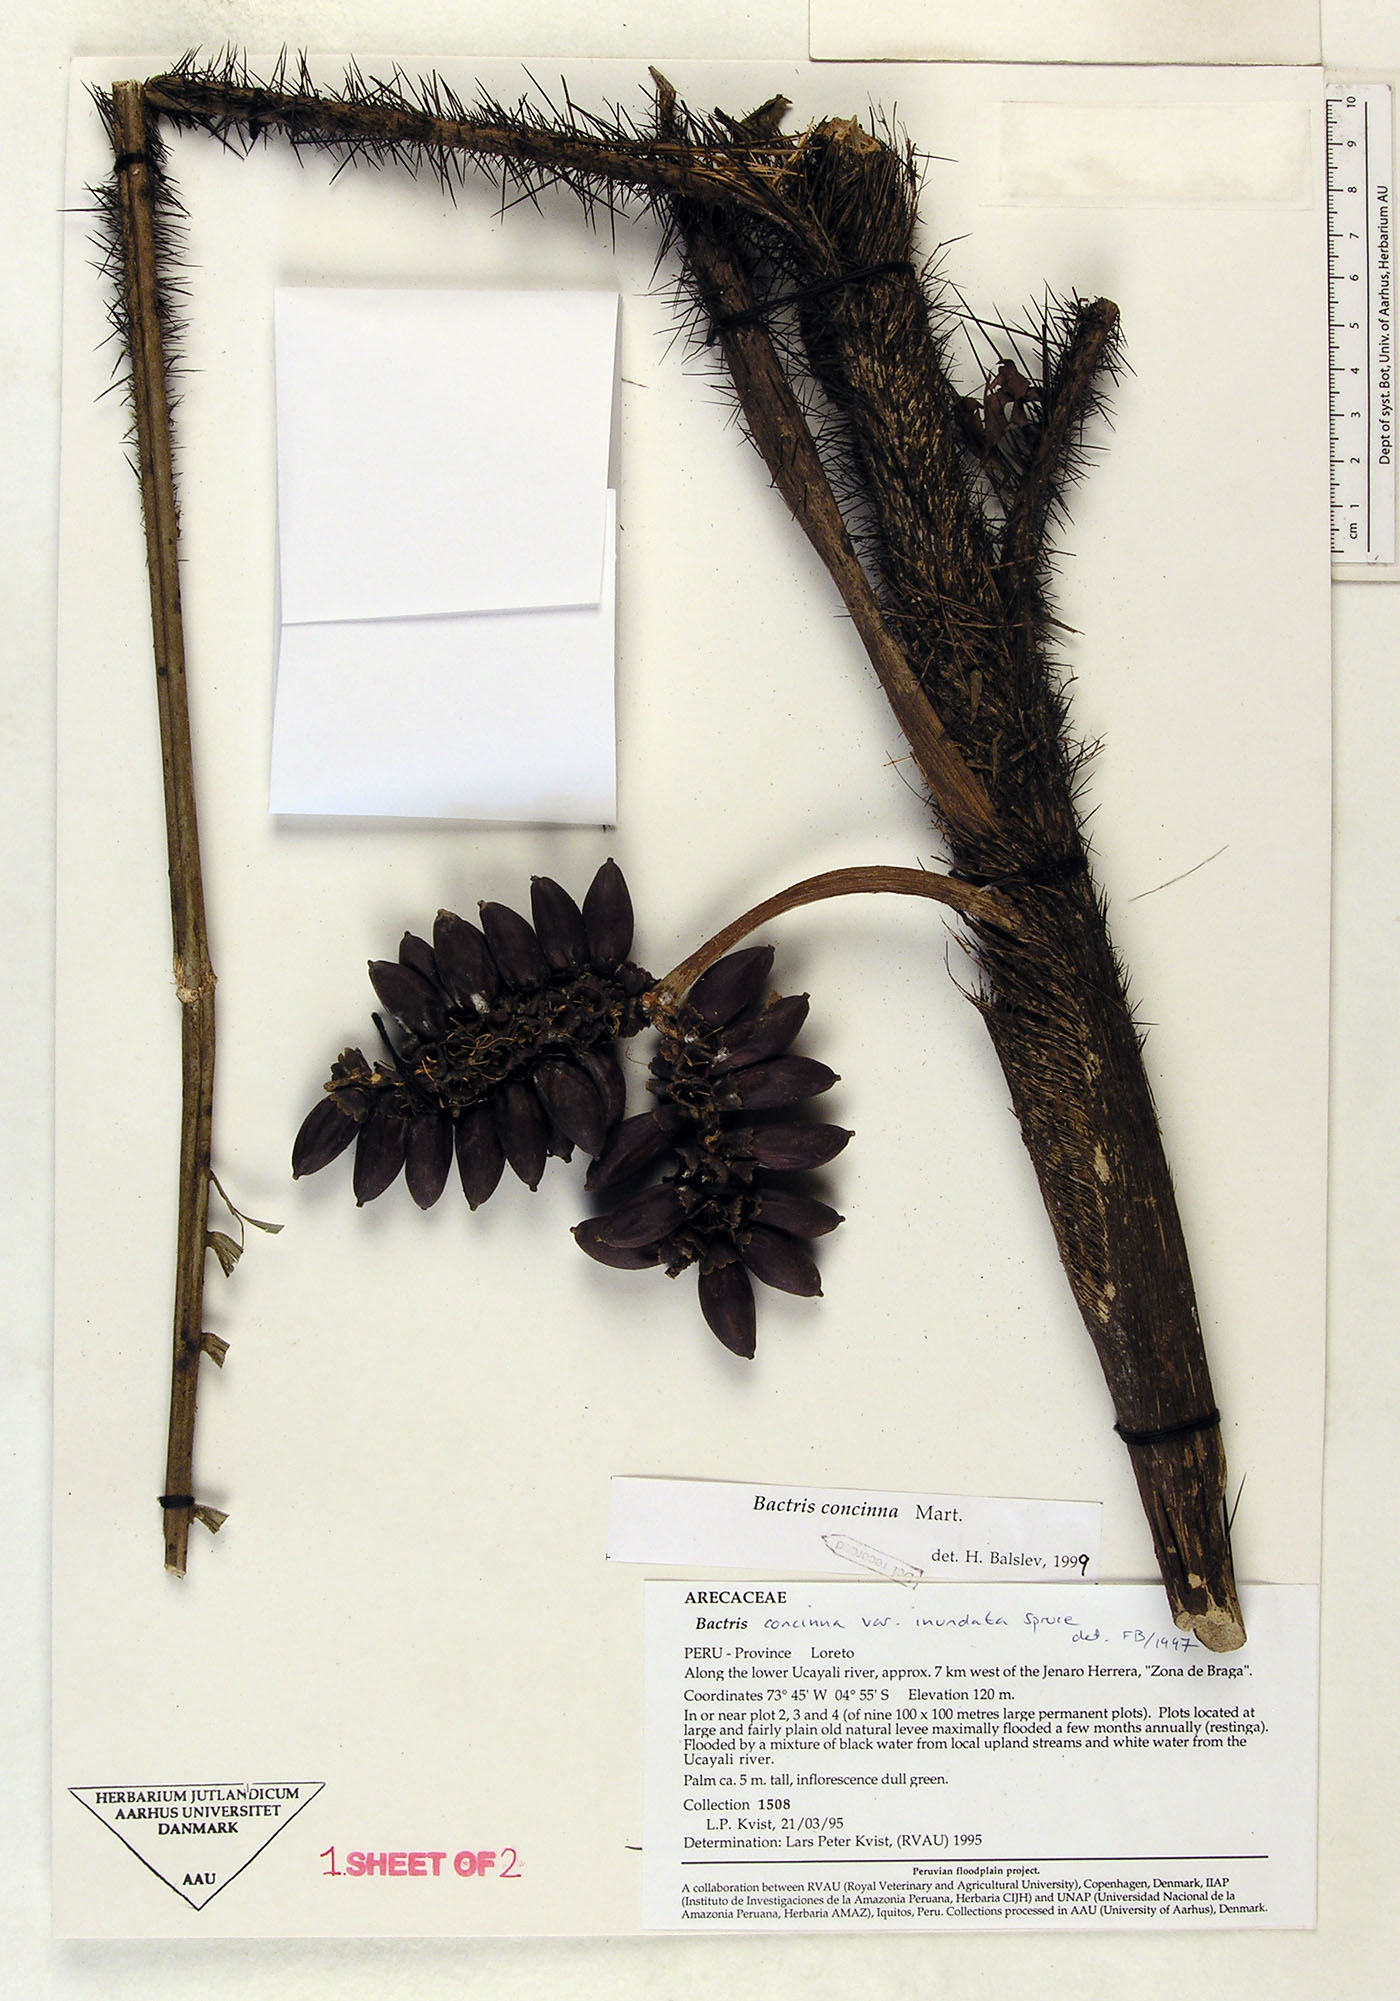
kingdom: Plantae
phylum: Tracheophyta
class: Liliopsida
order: Arecales
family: Arecaceae
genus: Bactris
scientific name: Bactris concinna
